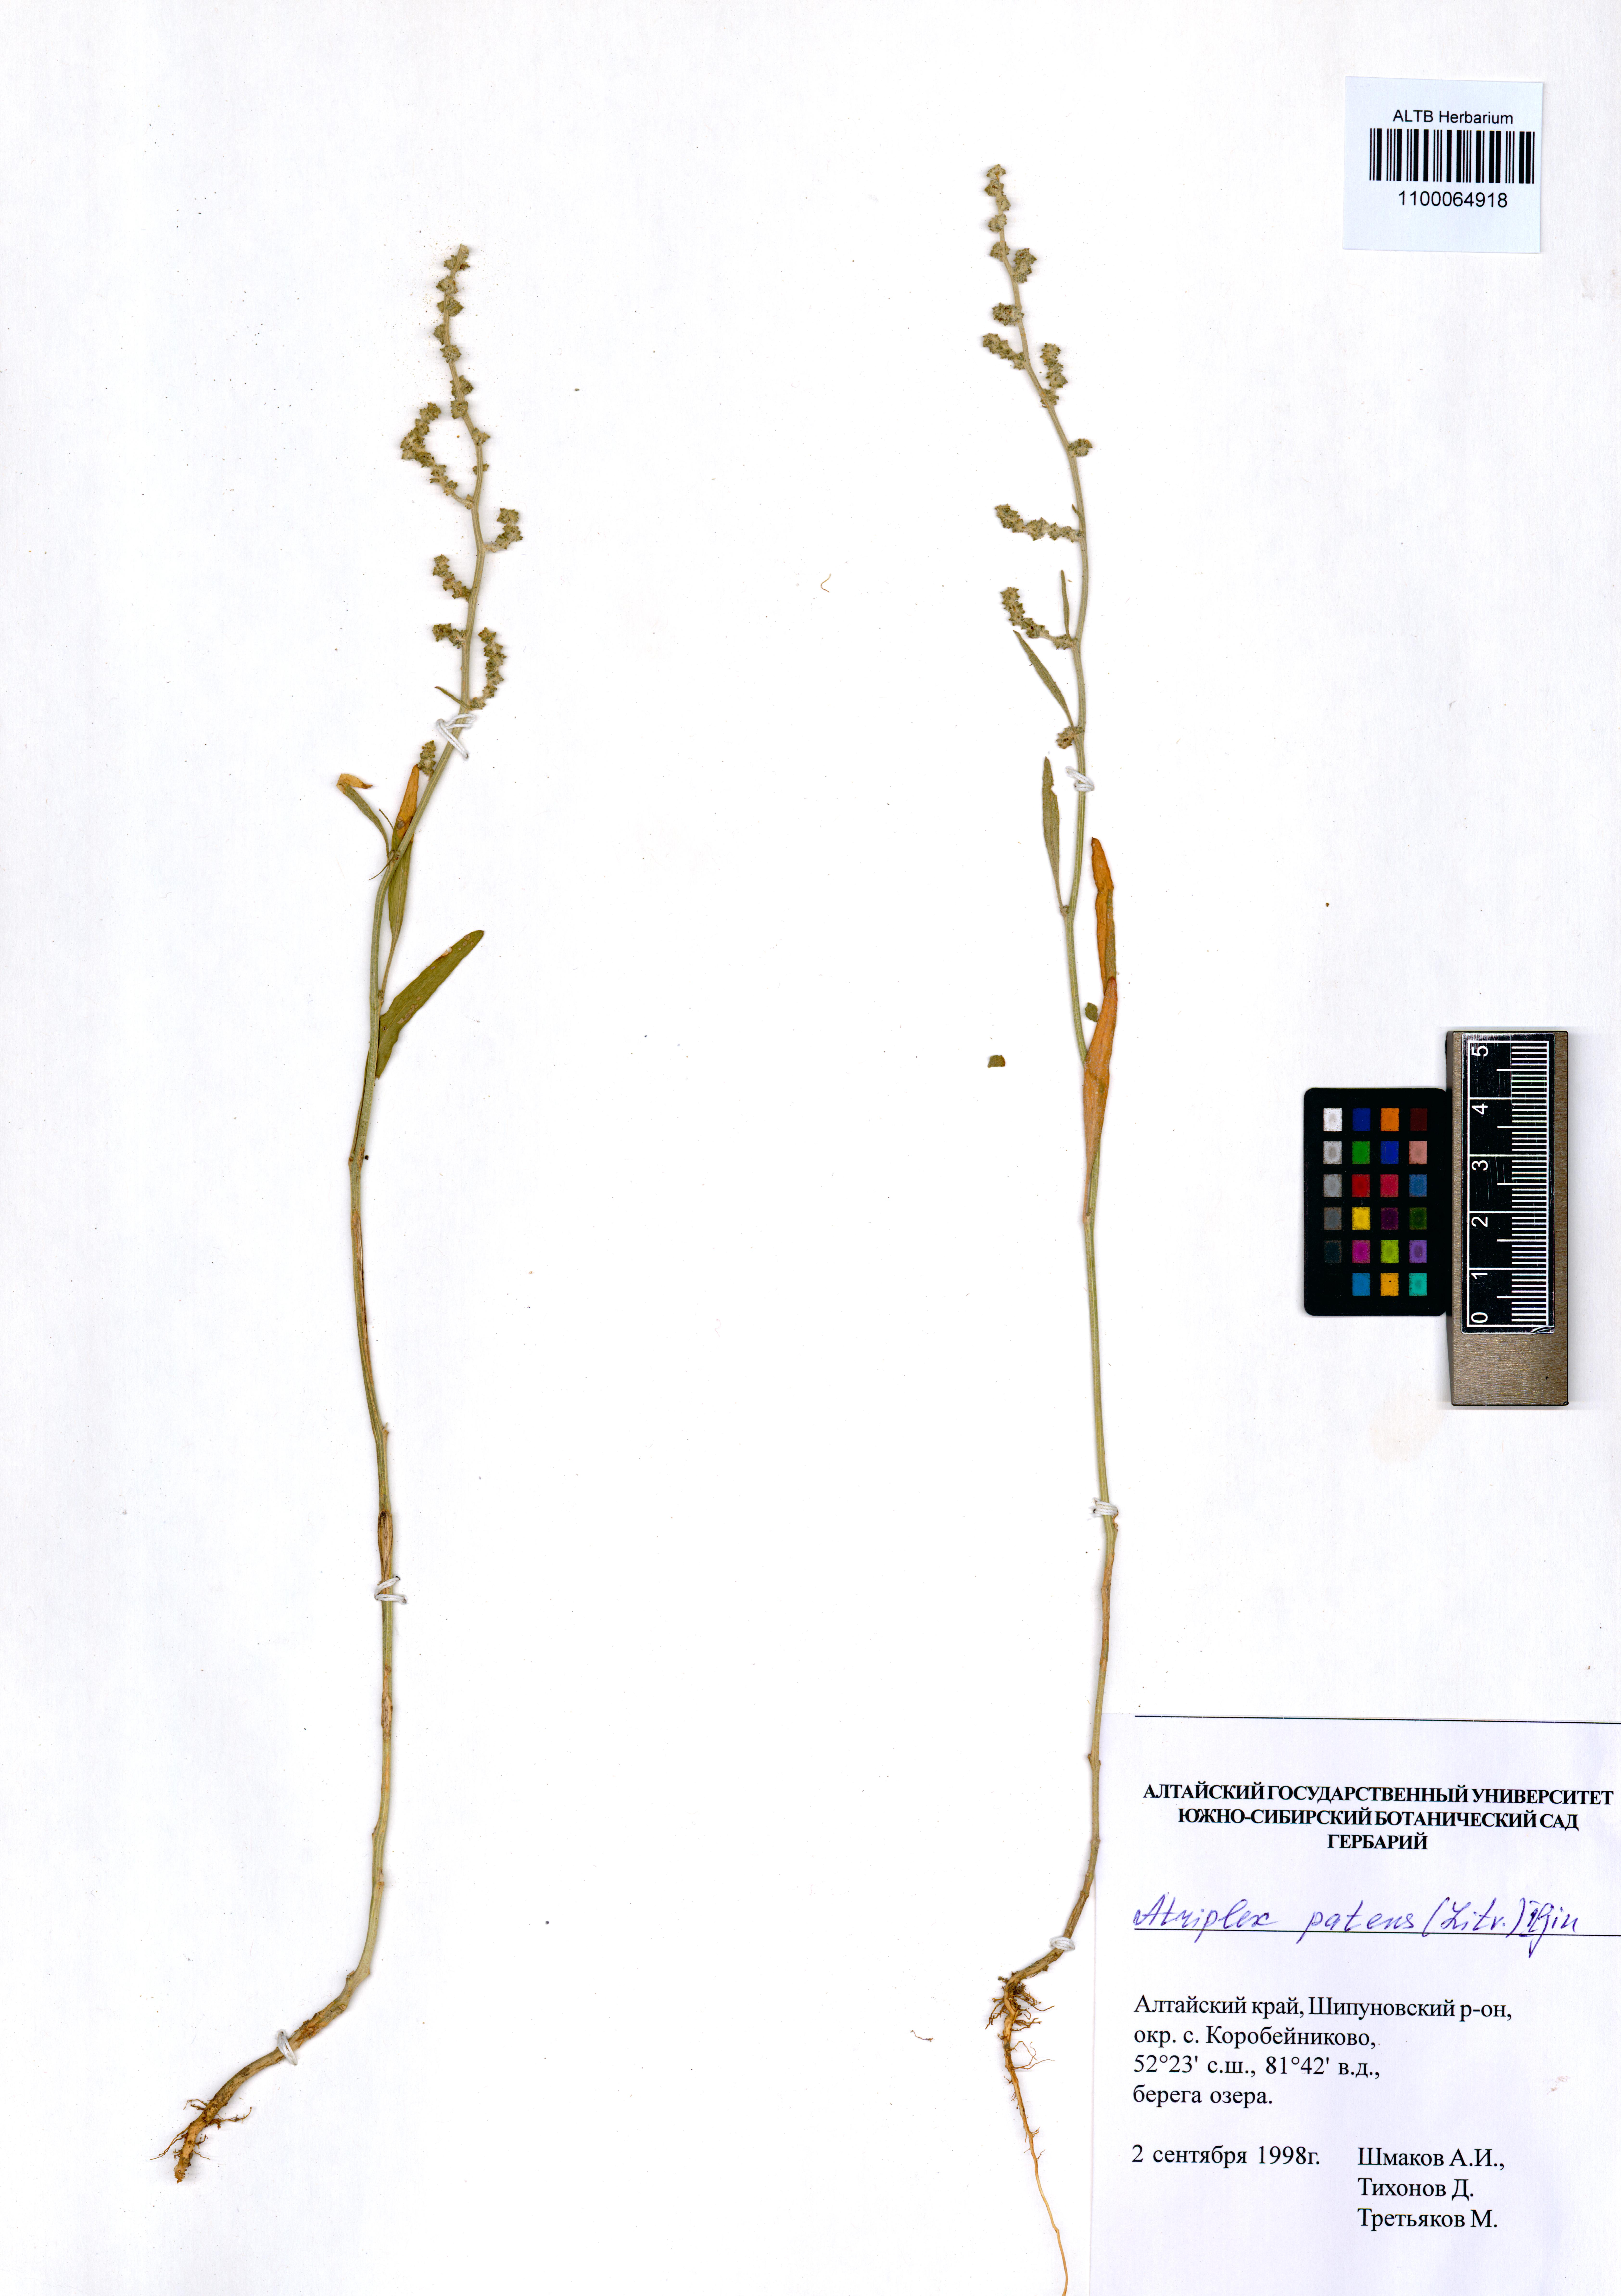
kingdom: Plantae
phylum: Tracheophyta
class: Magnoliopsida
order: Caryophyllales
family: Amaranthaceae
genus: Atriplex
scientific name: Atriplex patens
